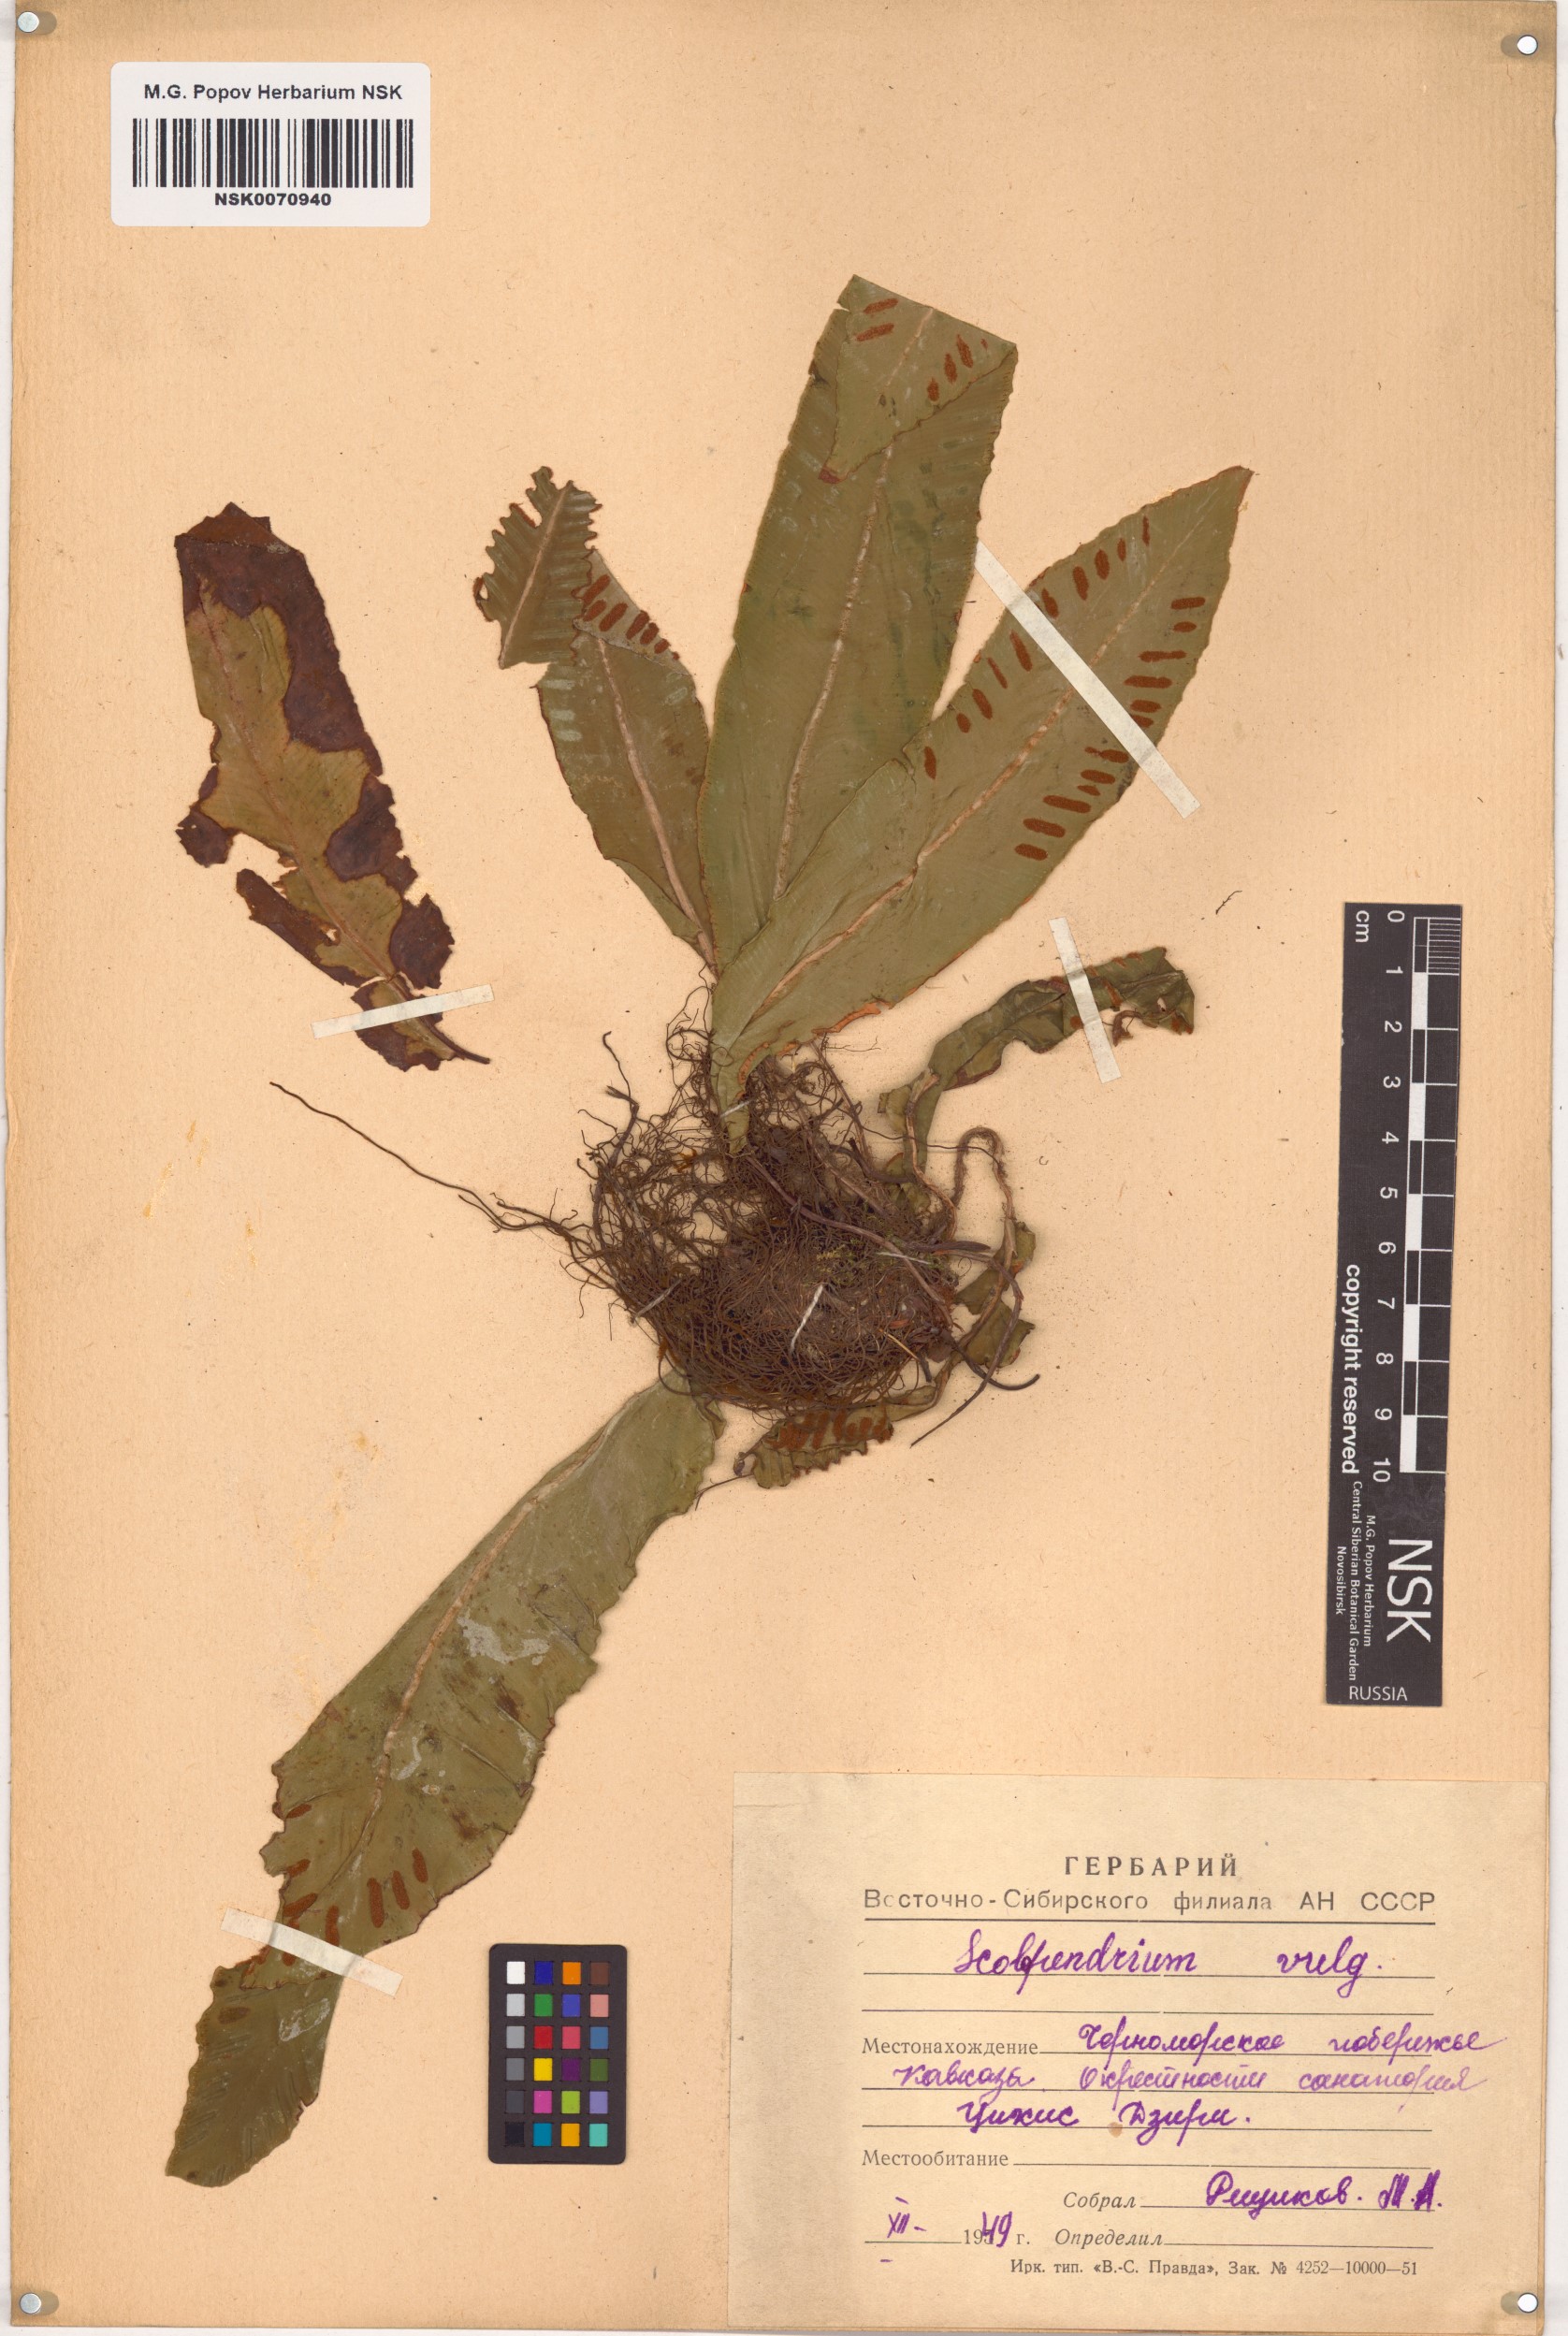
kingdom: Plantae
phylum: Tracheophyta
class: Polypodiopsida
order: Polypodiales
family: Aspleniaceae
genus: Asplenium
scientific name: Asplenium scolopendrium
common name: Hart's-tongue fern
